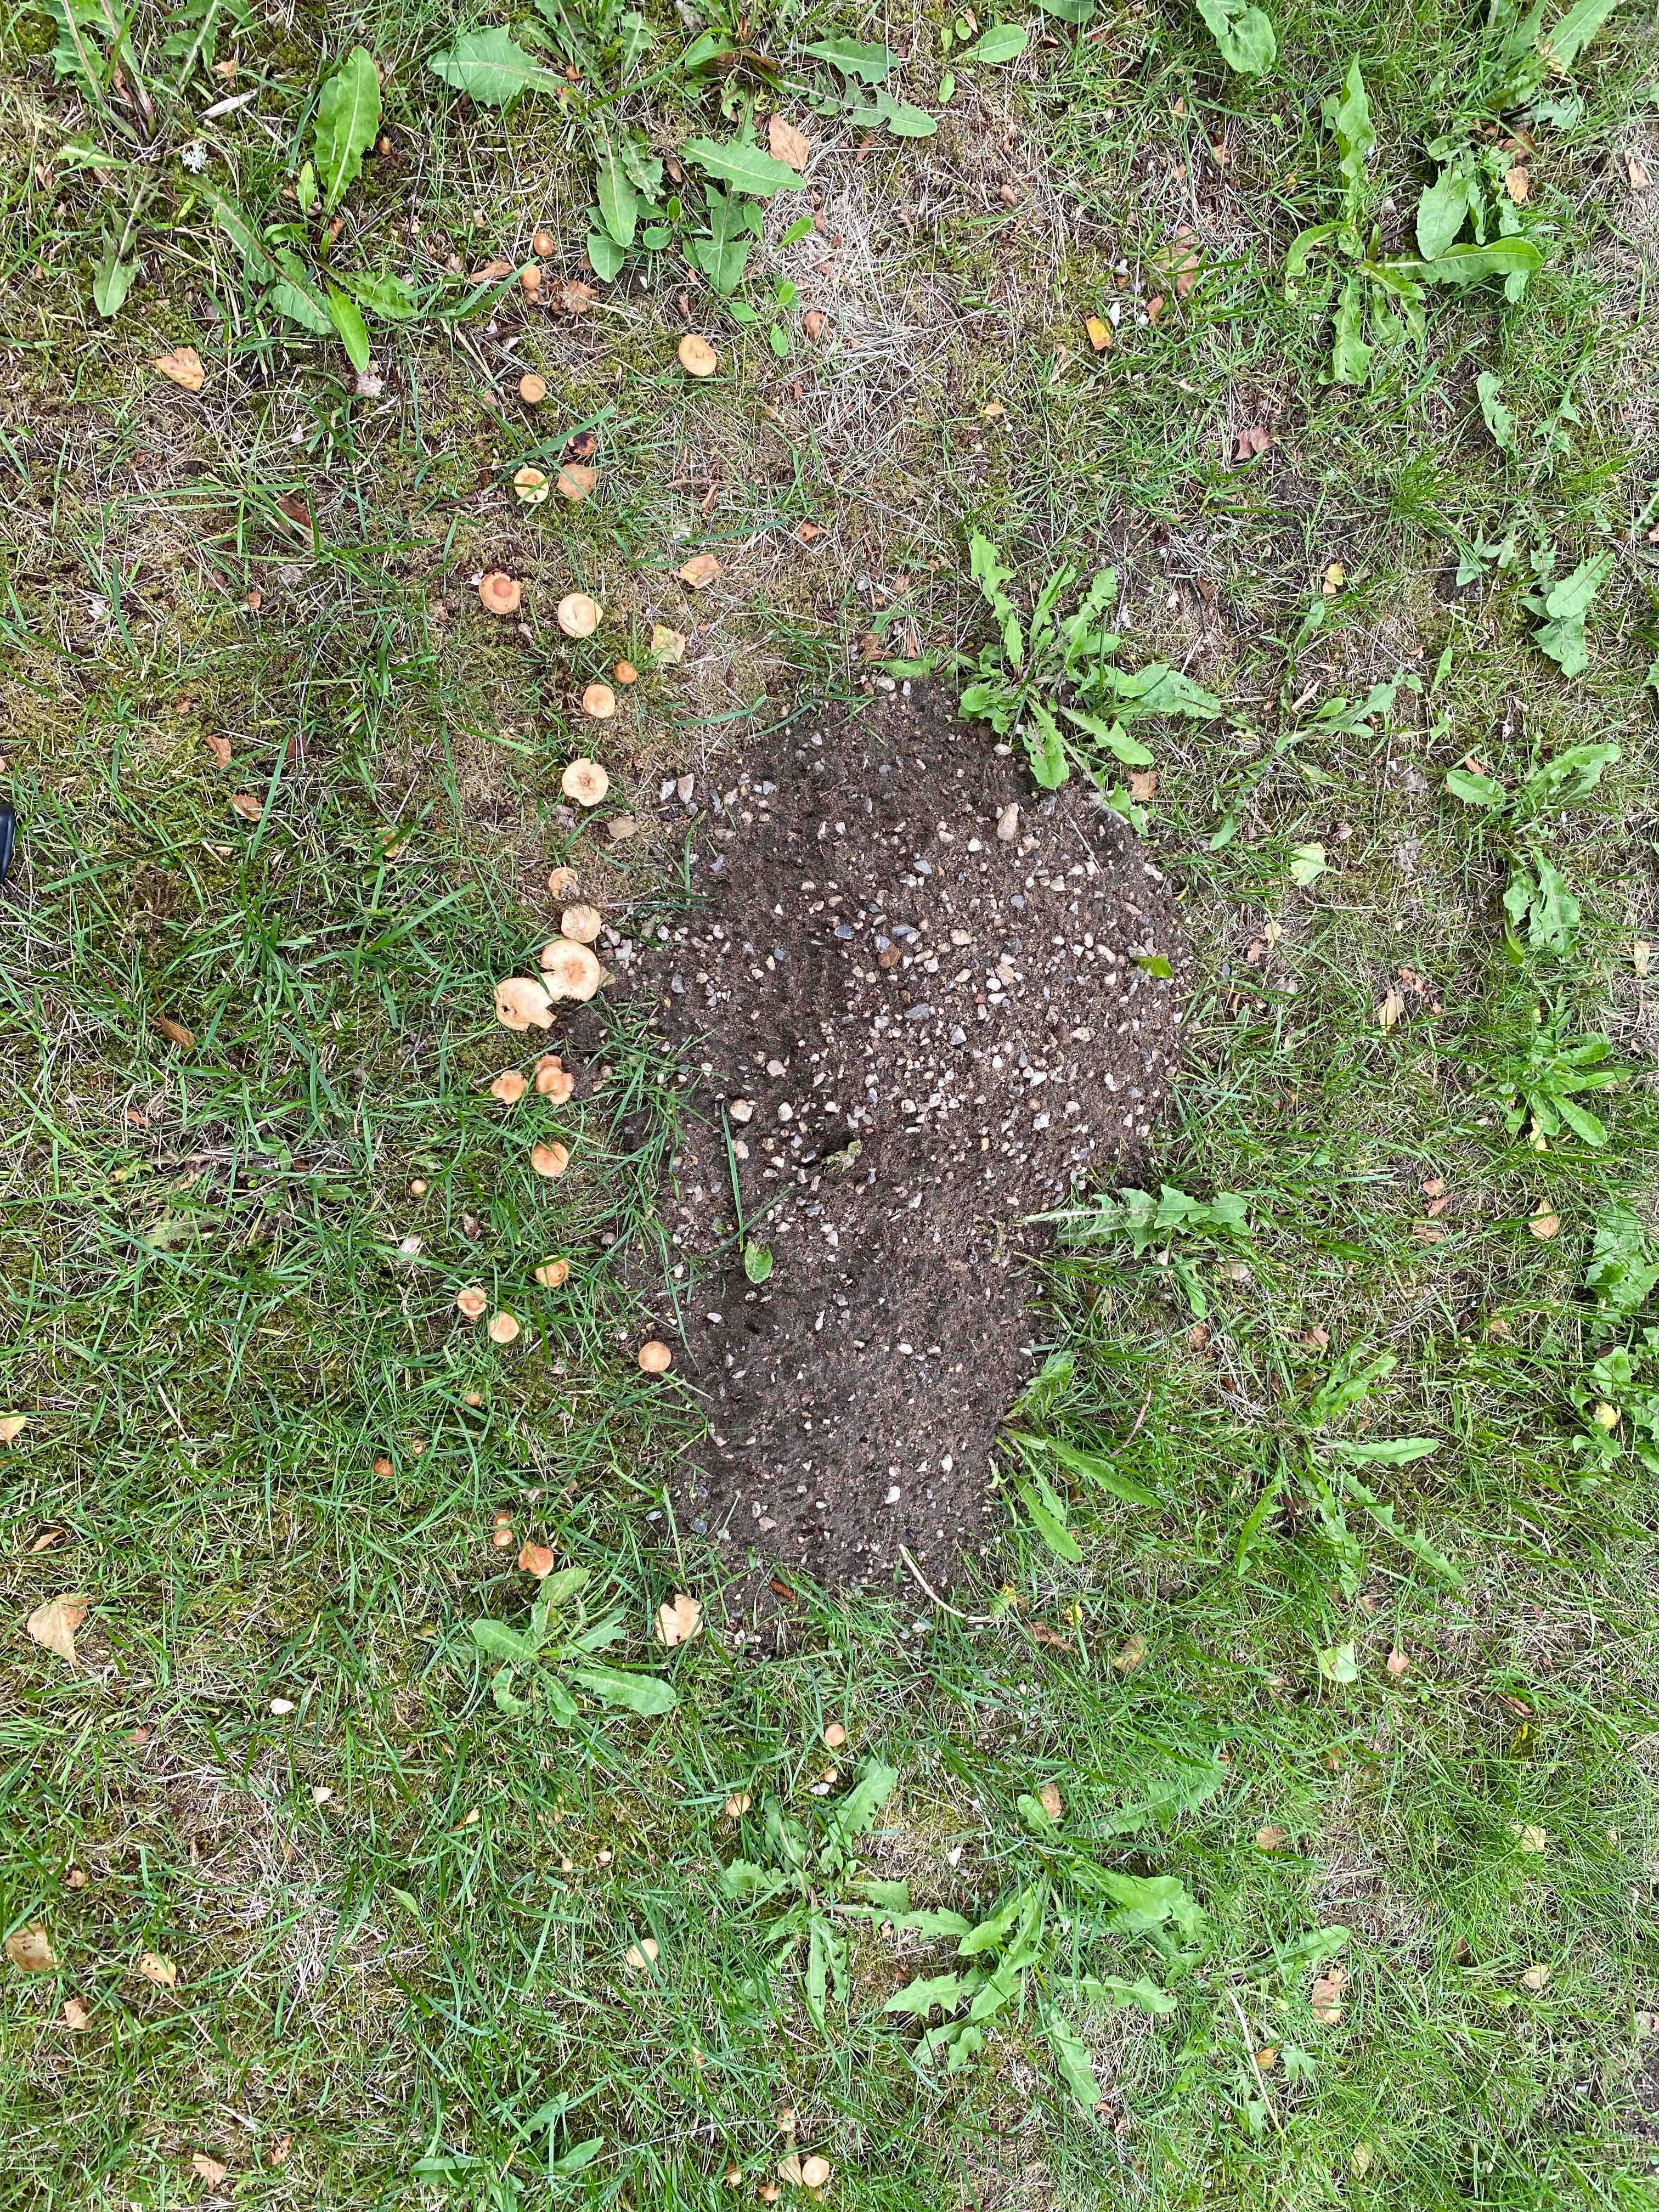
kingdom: Fungi
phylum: Basidiomycota
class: Agaricomycetes
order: Agaricales
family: Marasmiaceae
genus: Marasmius
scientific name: Marasmius oreades
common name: elledans-bruskhat
